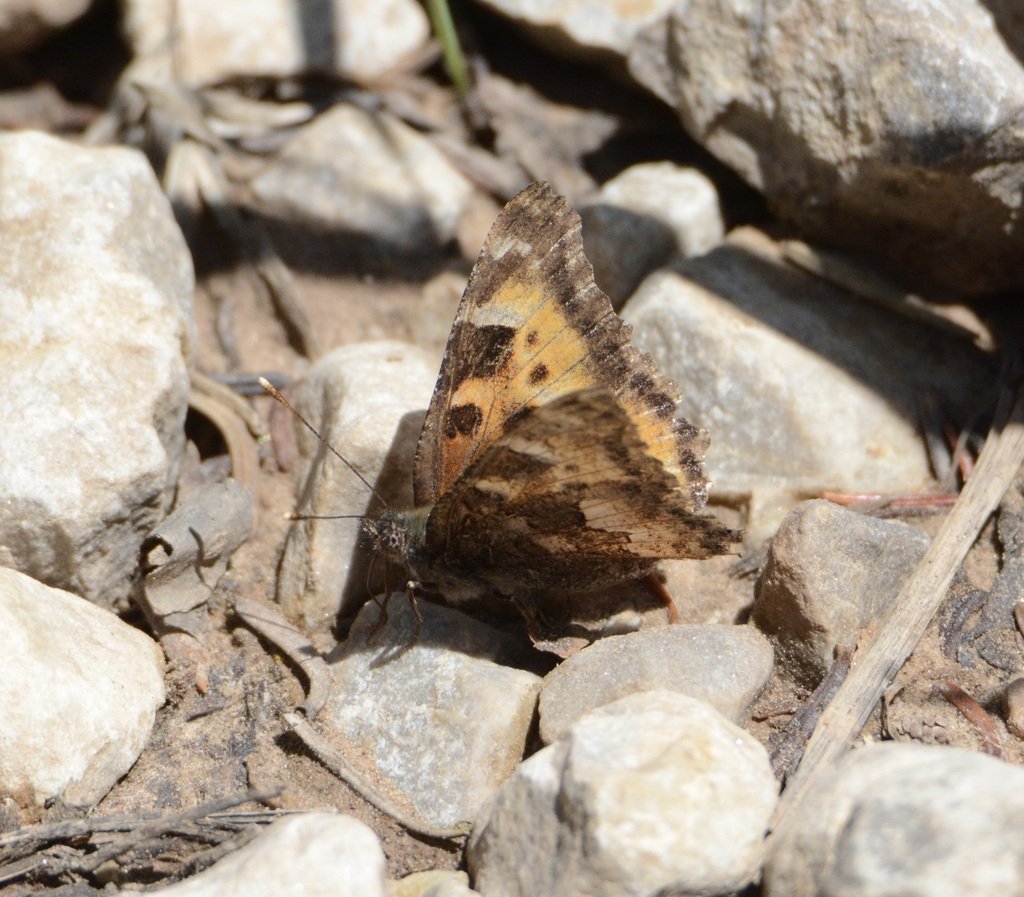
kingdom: Animalia
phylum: Arthropoda
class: Insecta
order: Lepidoptera
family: Nymphalidae
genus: Nymphalis
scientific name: Nymphalis californica
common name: California Tortoiseshell
